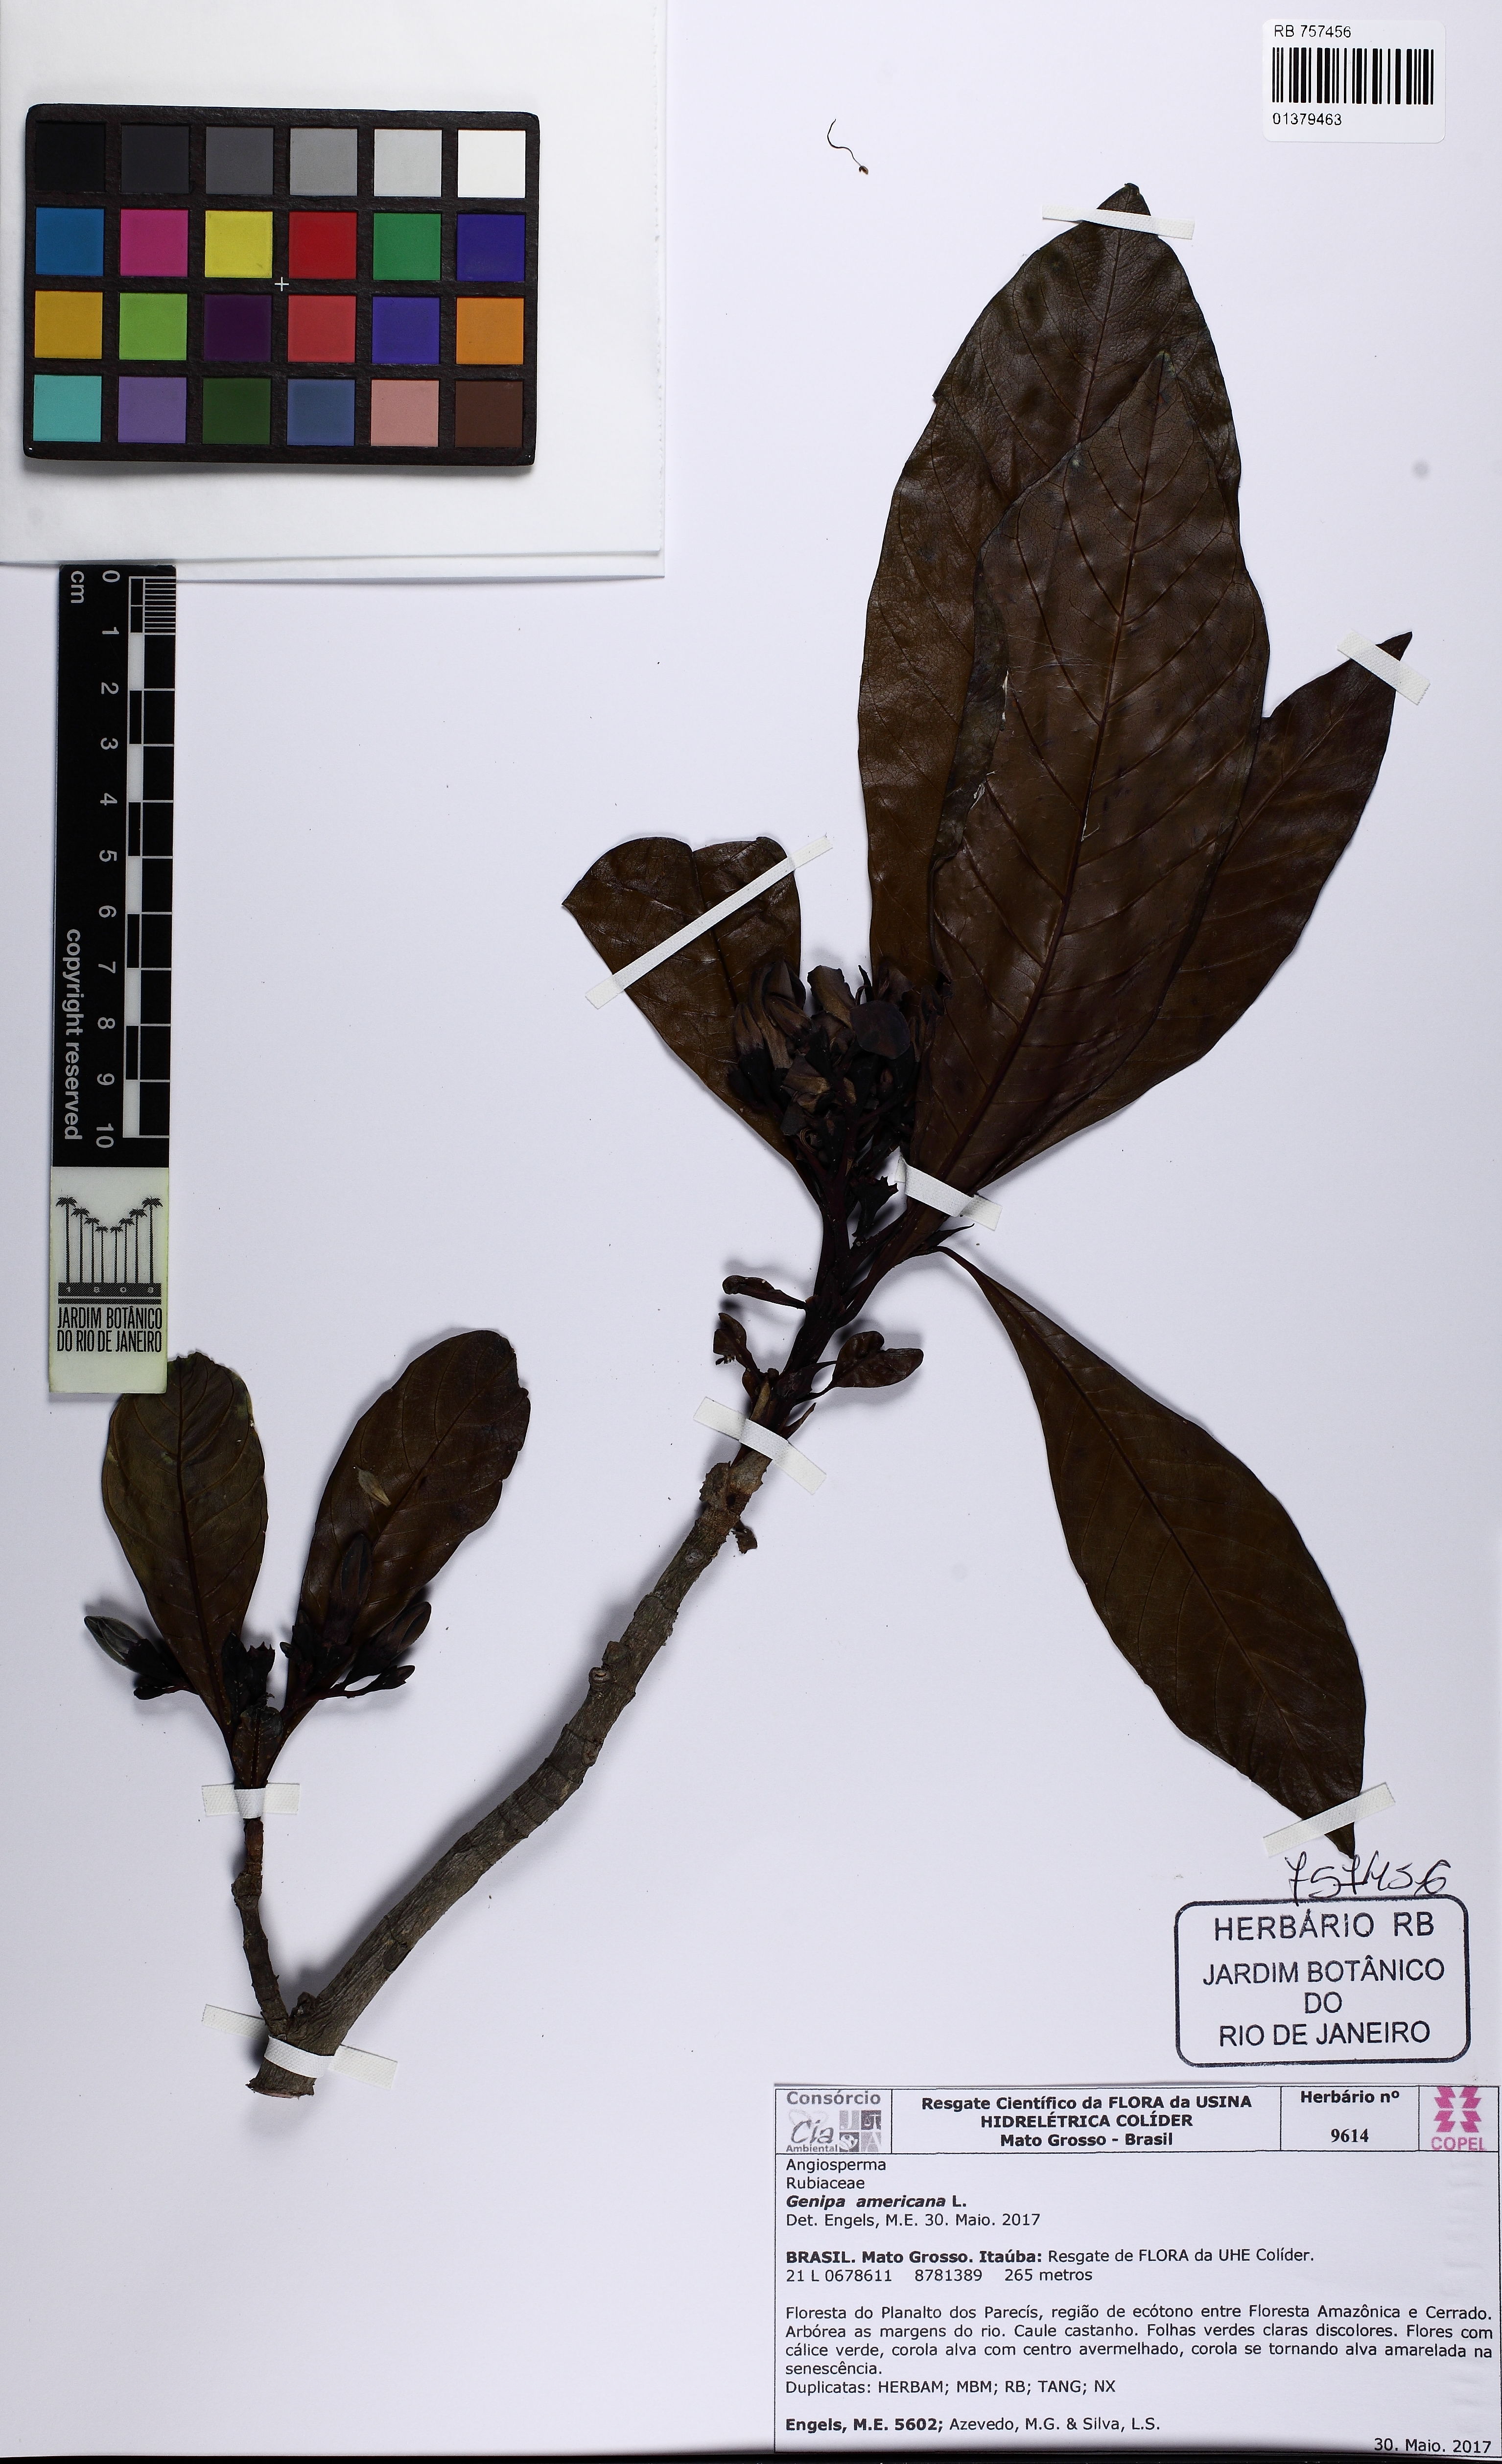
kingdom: Plantae
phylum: Tracheophyta
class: Magnoliopsida
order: Gentianales
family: Rubiaceae
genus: Genipa
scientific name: Genipa americana
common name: Genipap
